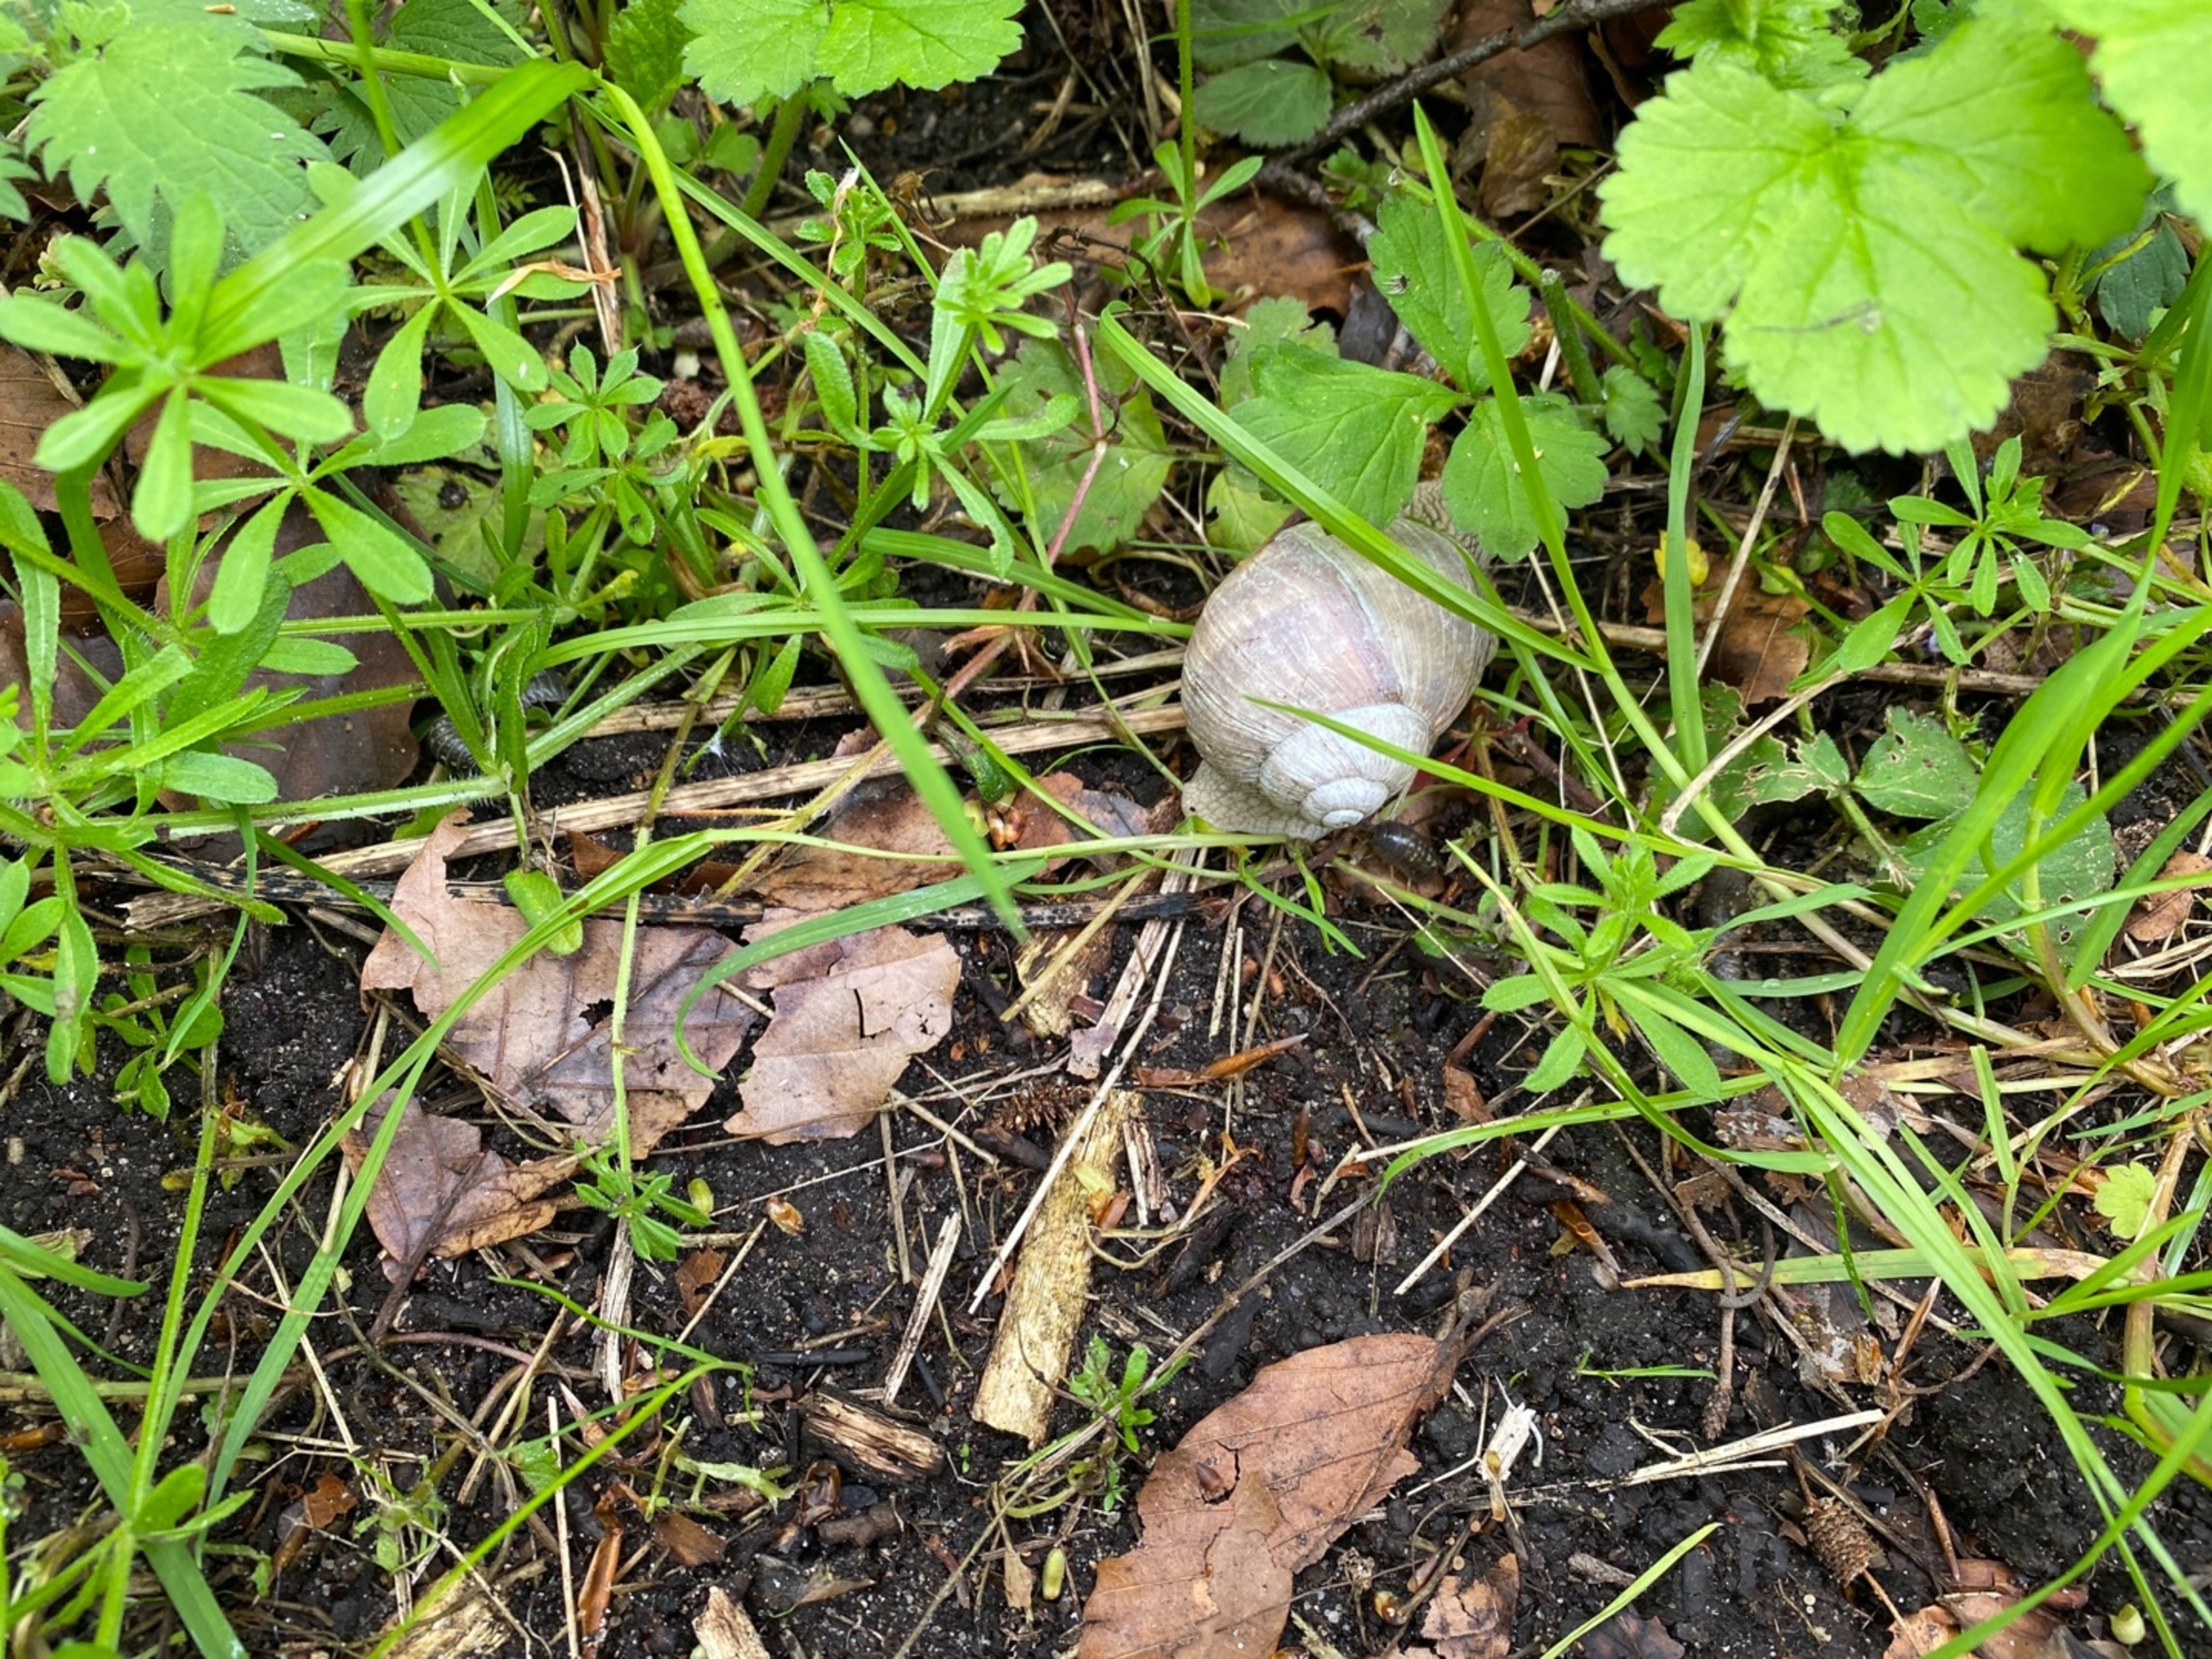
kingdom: Animalia
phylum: Mollusca
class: Gastropoda
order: Stylommatophora
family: Helicidae
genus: Helix
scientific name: Helix pomatia
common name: Vinbjergsnegl
